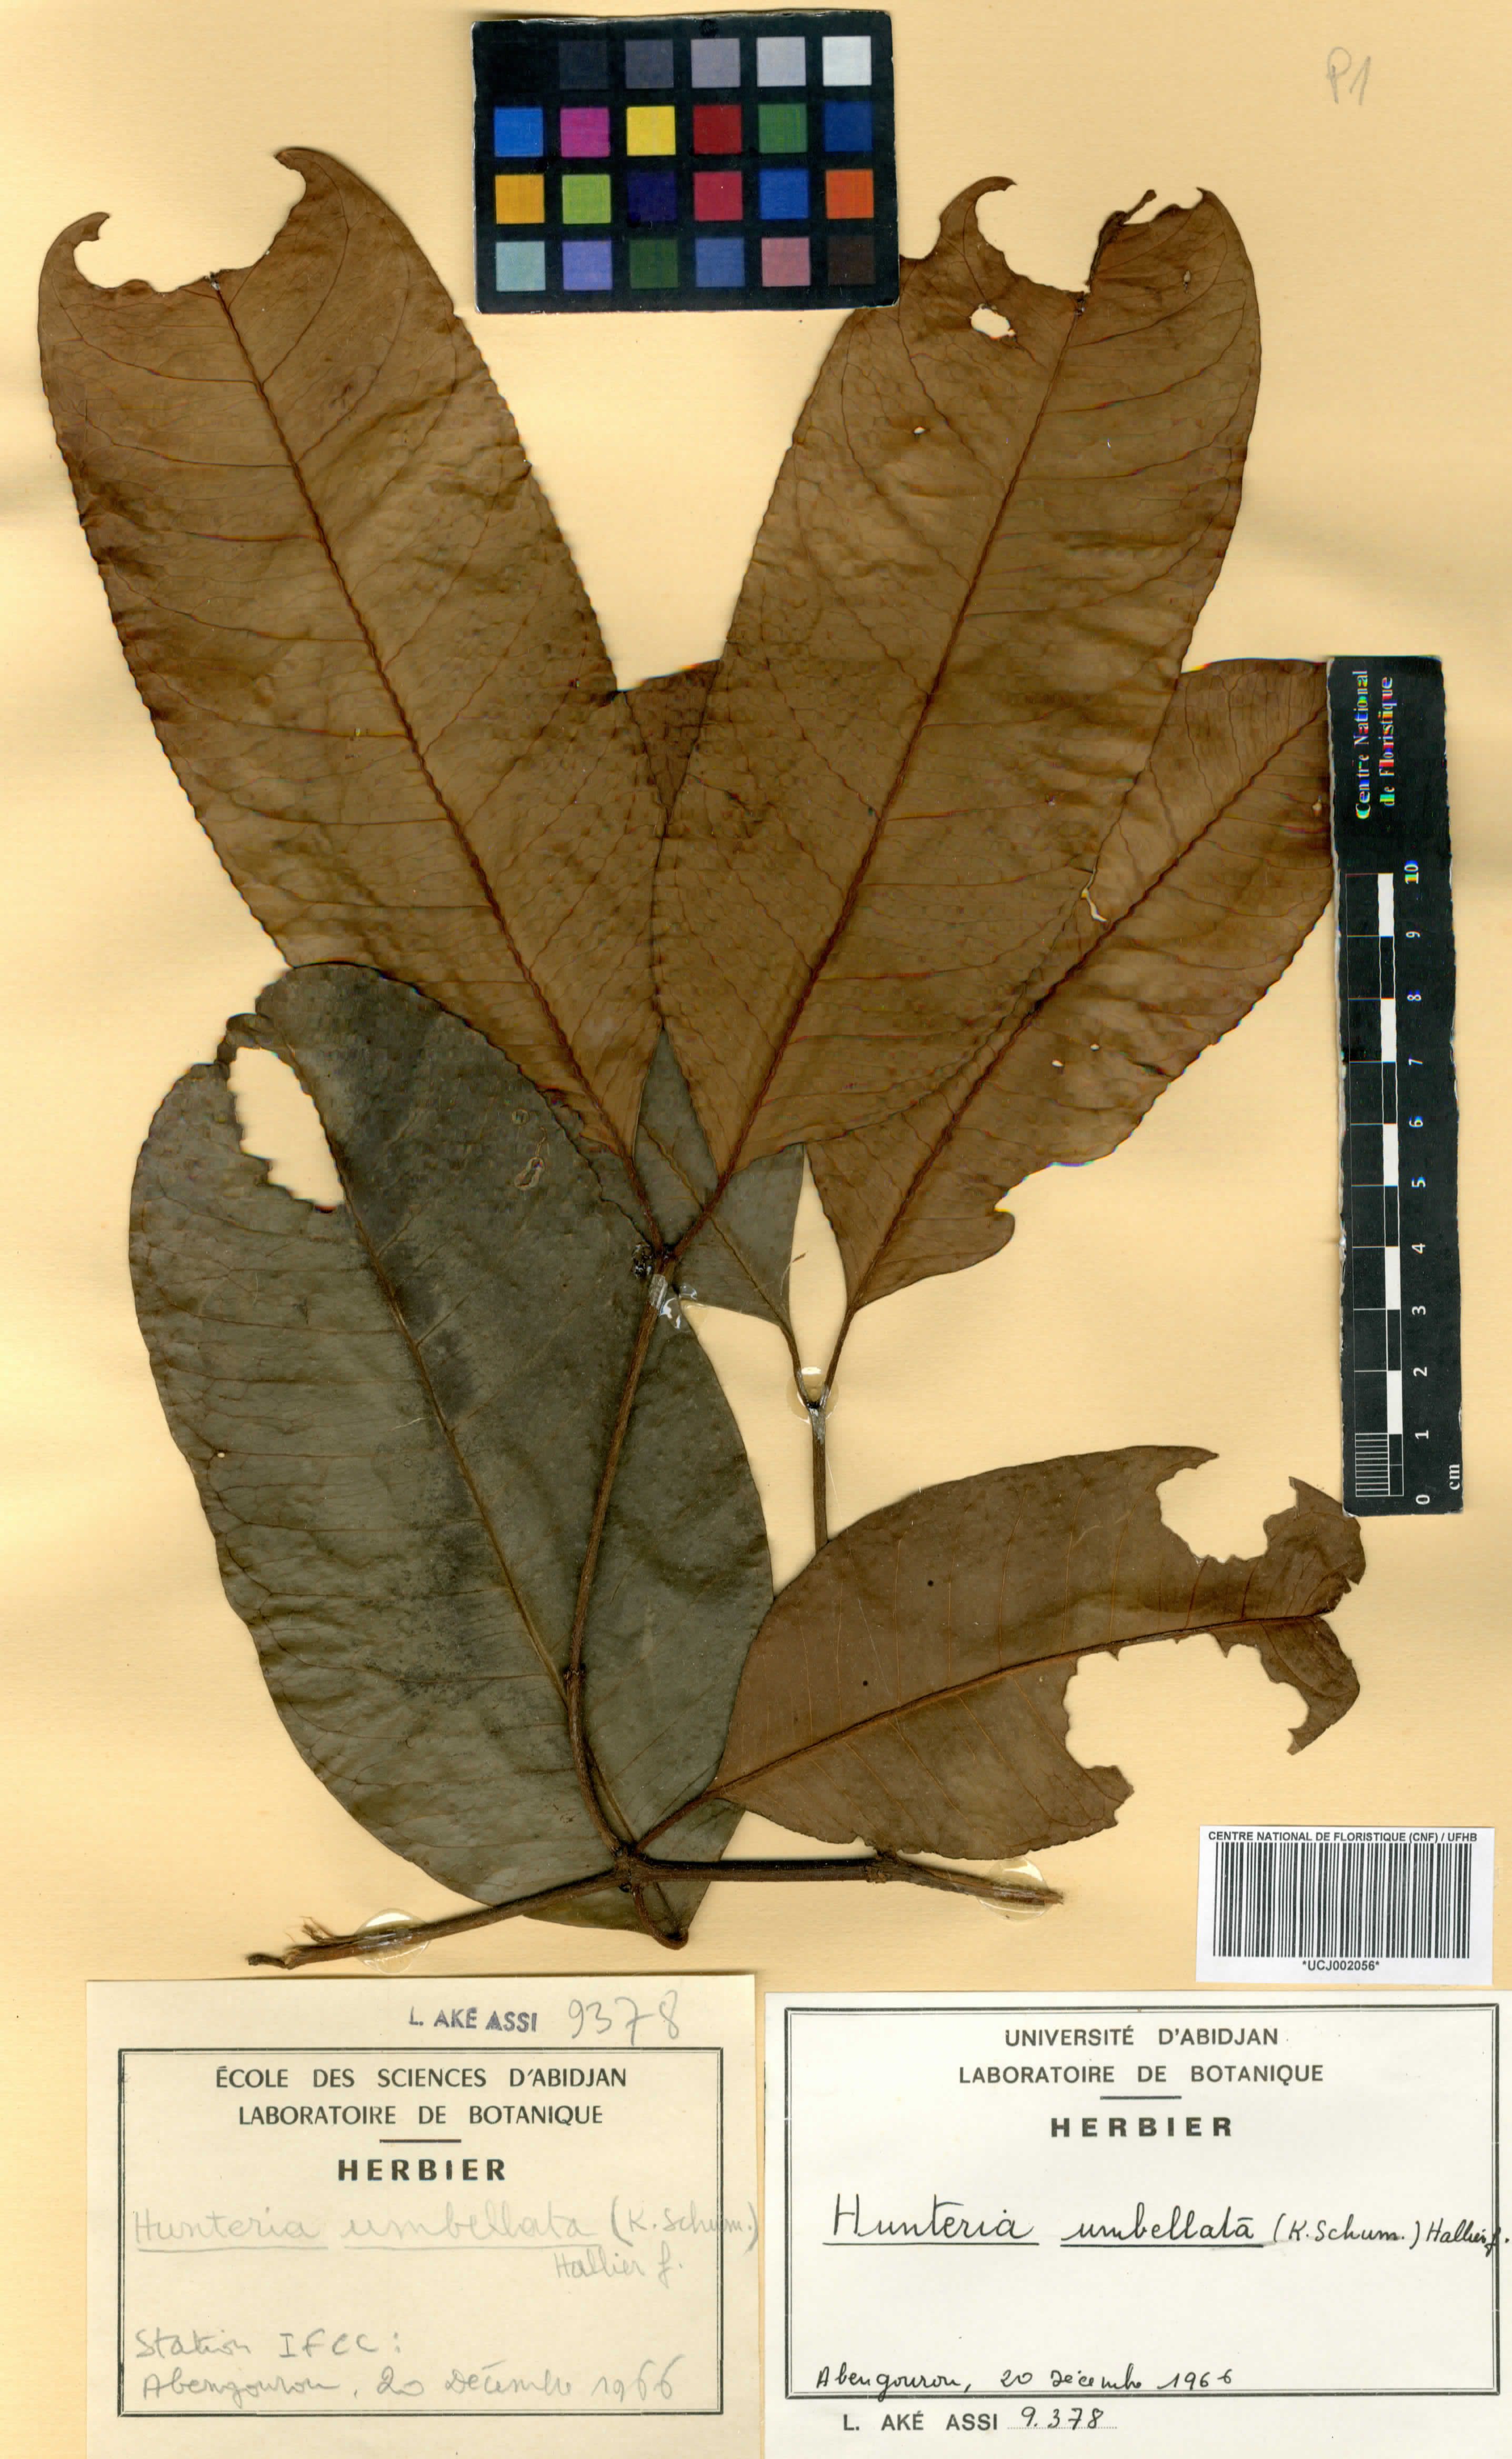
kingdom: Plantae
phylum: Tracheophyta
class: Magnoliopsida
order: Gentianales
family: Apocynaceae
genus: Hunteria
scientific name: Hunteria simii
